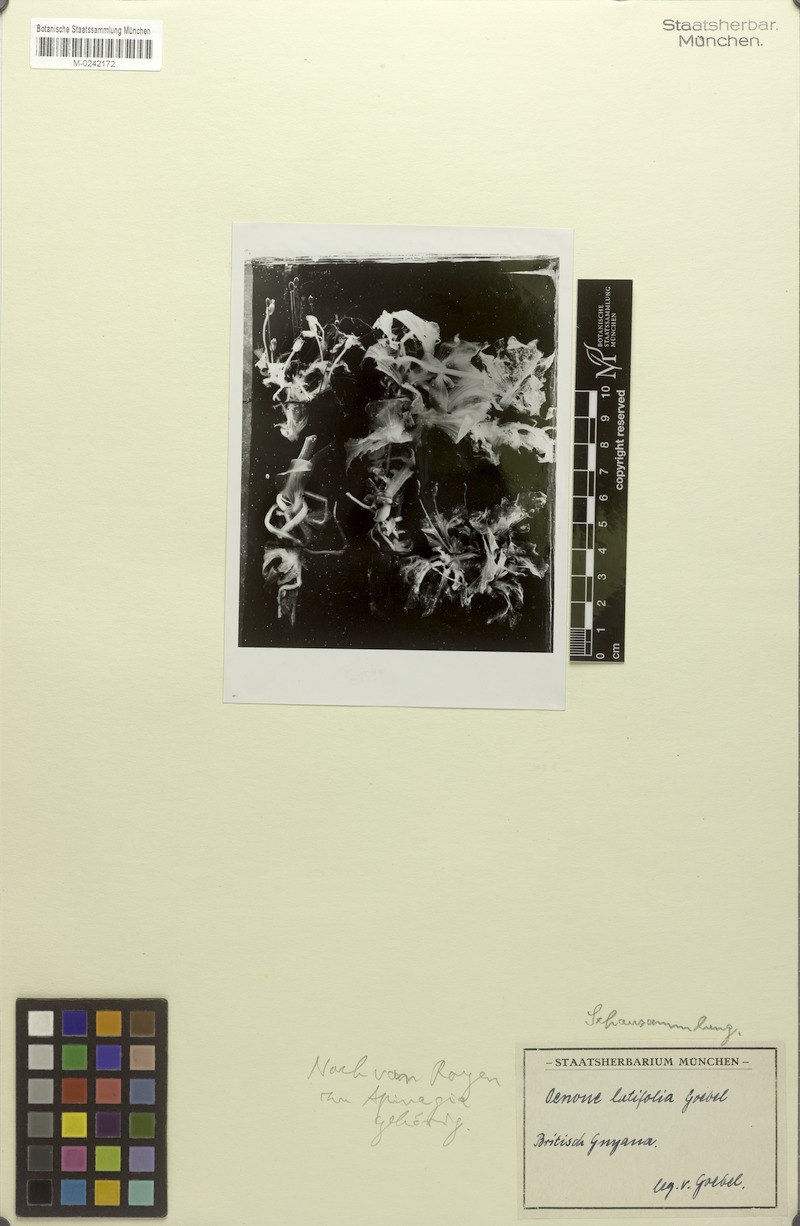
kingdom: Plantae
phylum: Tracheophyta
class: Magnoliopsida
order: Malpighiales
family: Podostemaceae
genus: Apinagia
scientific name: Apinagia kochii
